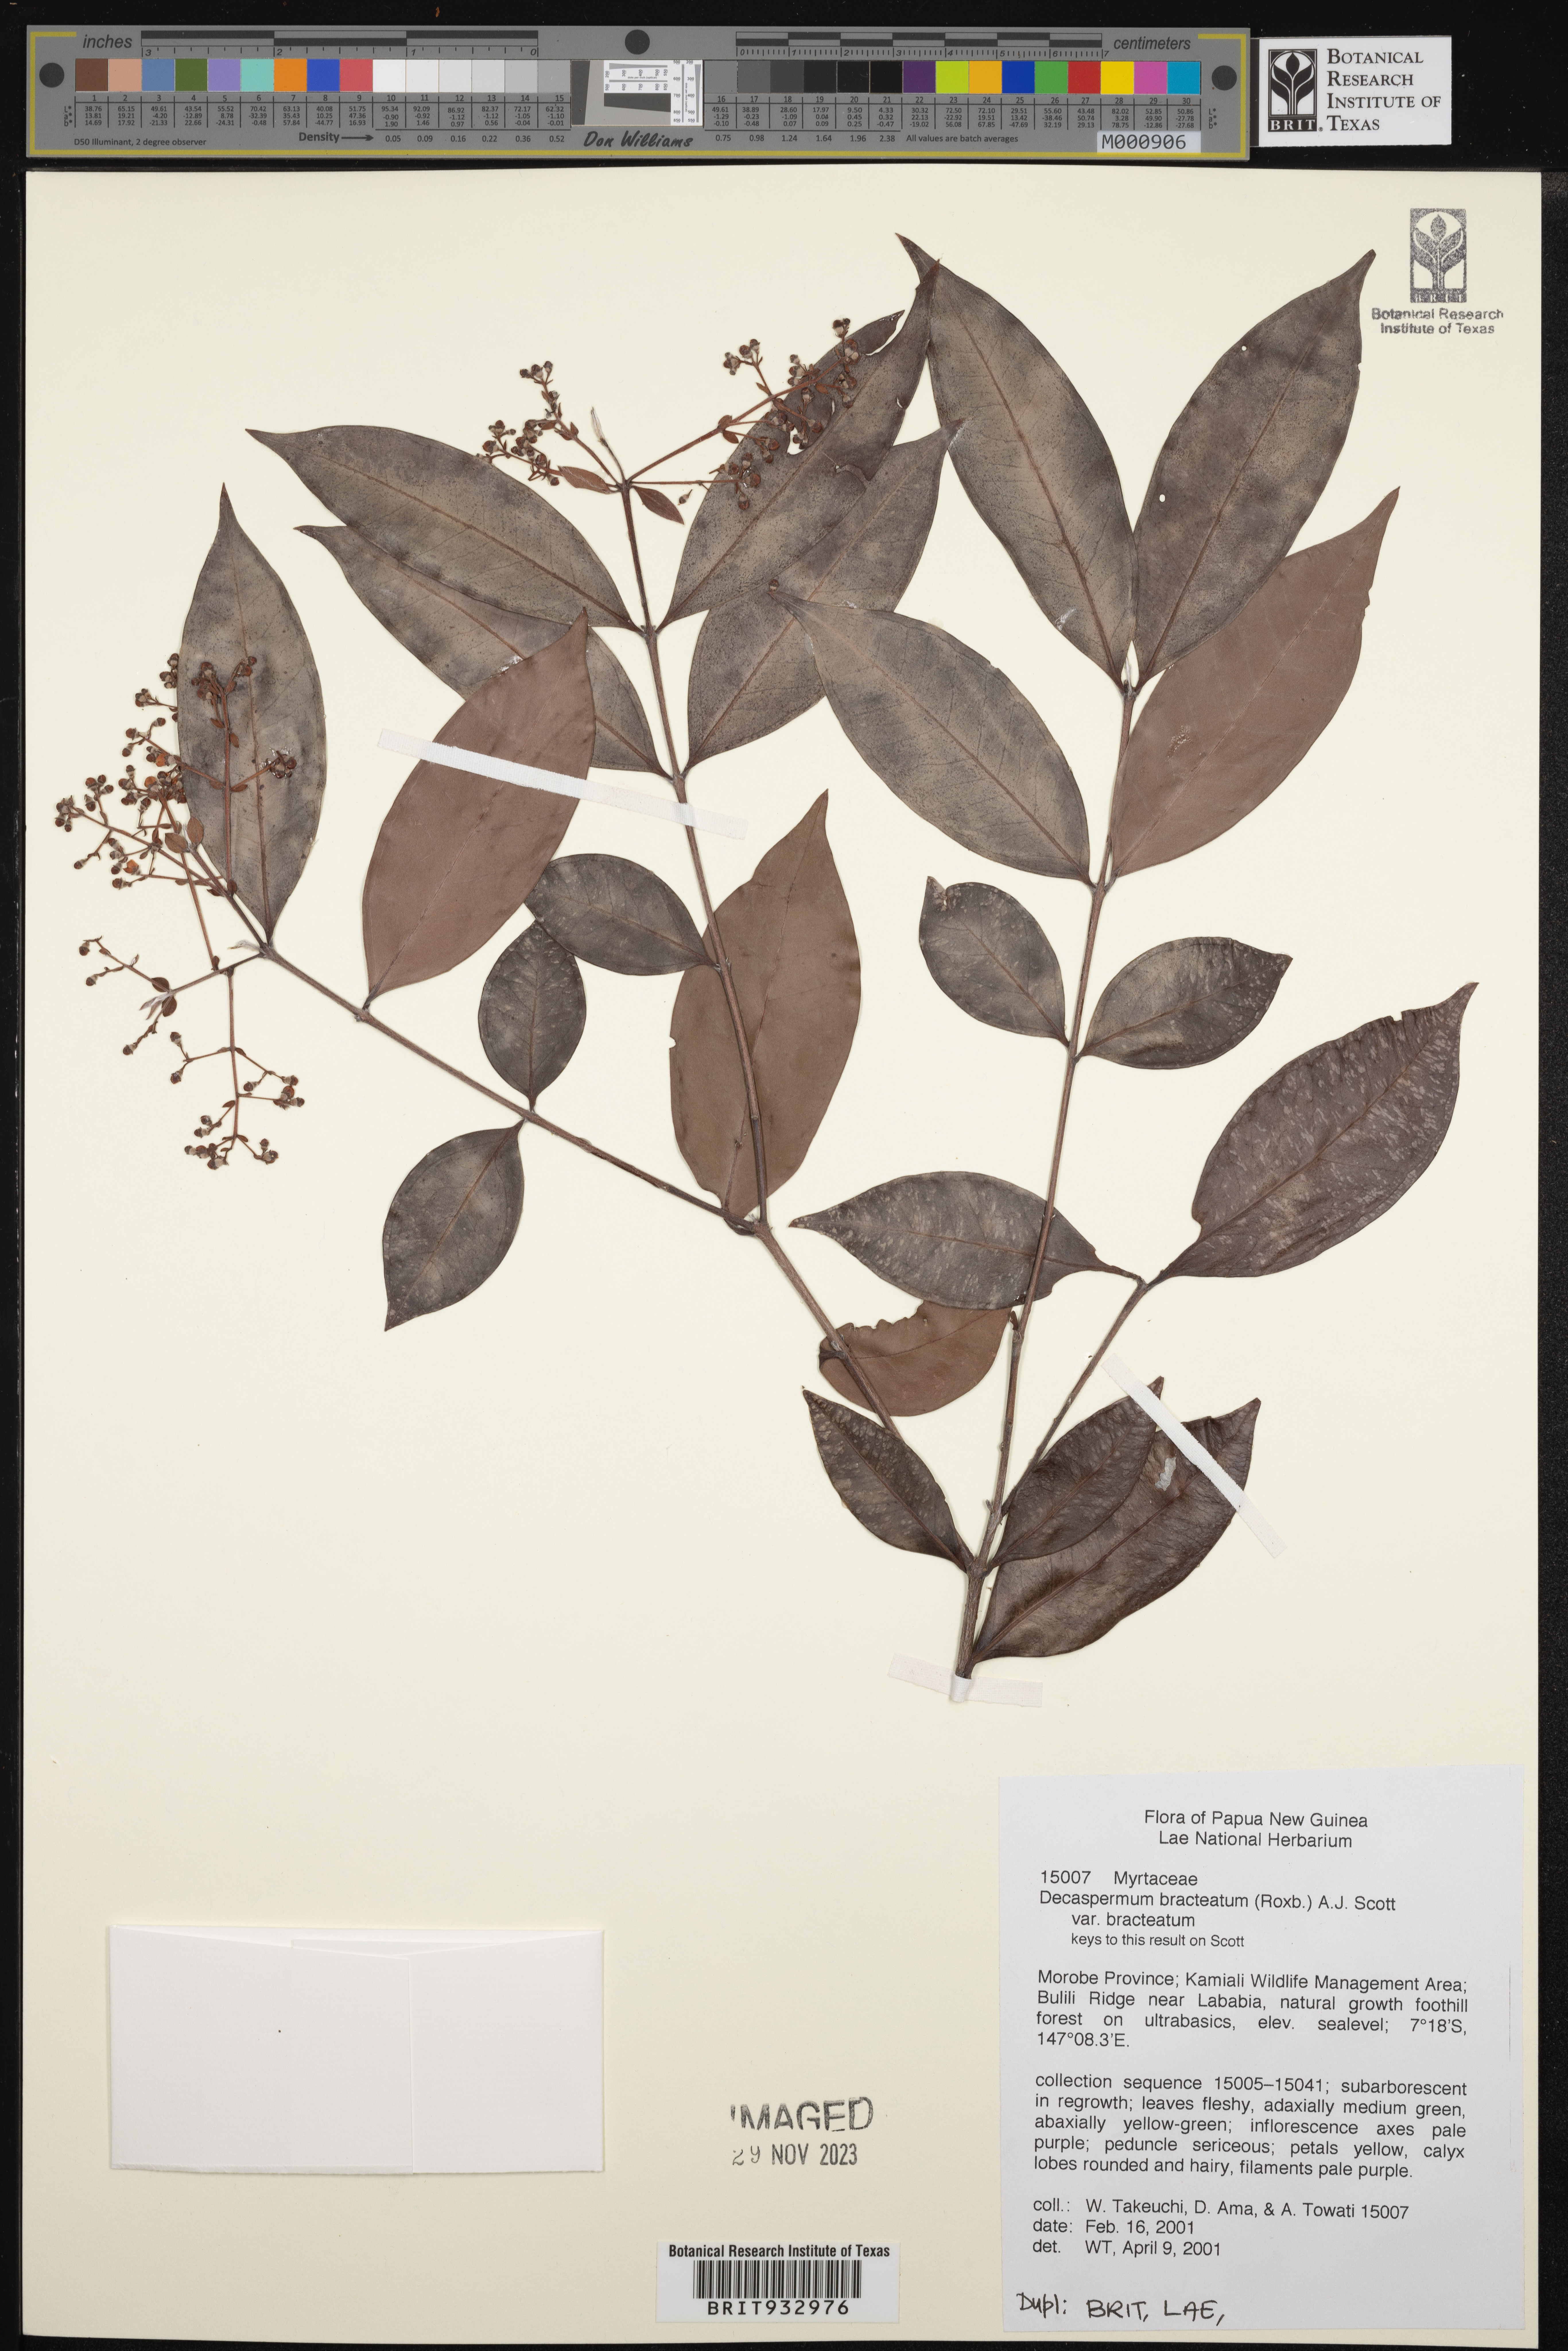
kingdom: Plantae
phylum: Tracheophyta
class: Magnoliopsida
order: Myrtales
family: Myrtaceae
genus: Decaspermum
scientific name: Decaspermum
